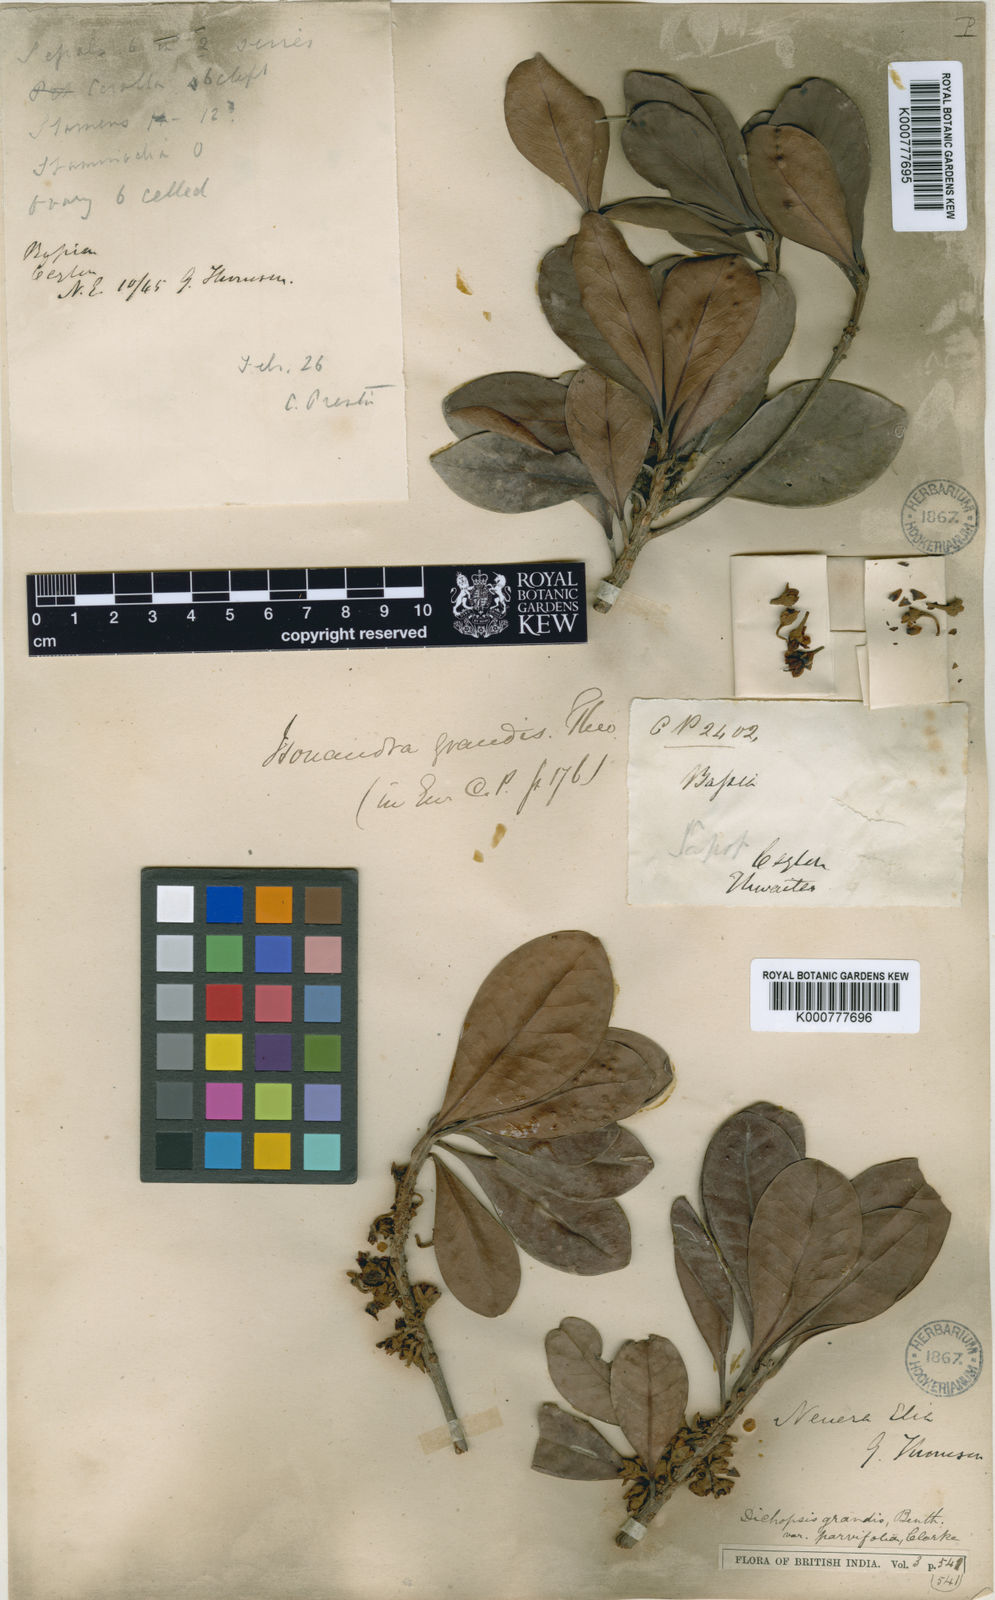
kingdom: Plantae
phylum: Tracheophyta
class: Magnoliopsida
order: Ericales
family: Sapotaceae
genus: Palaquium
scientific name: Palaquium grande
